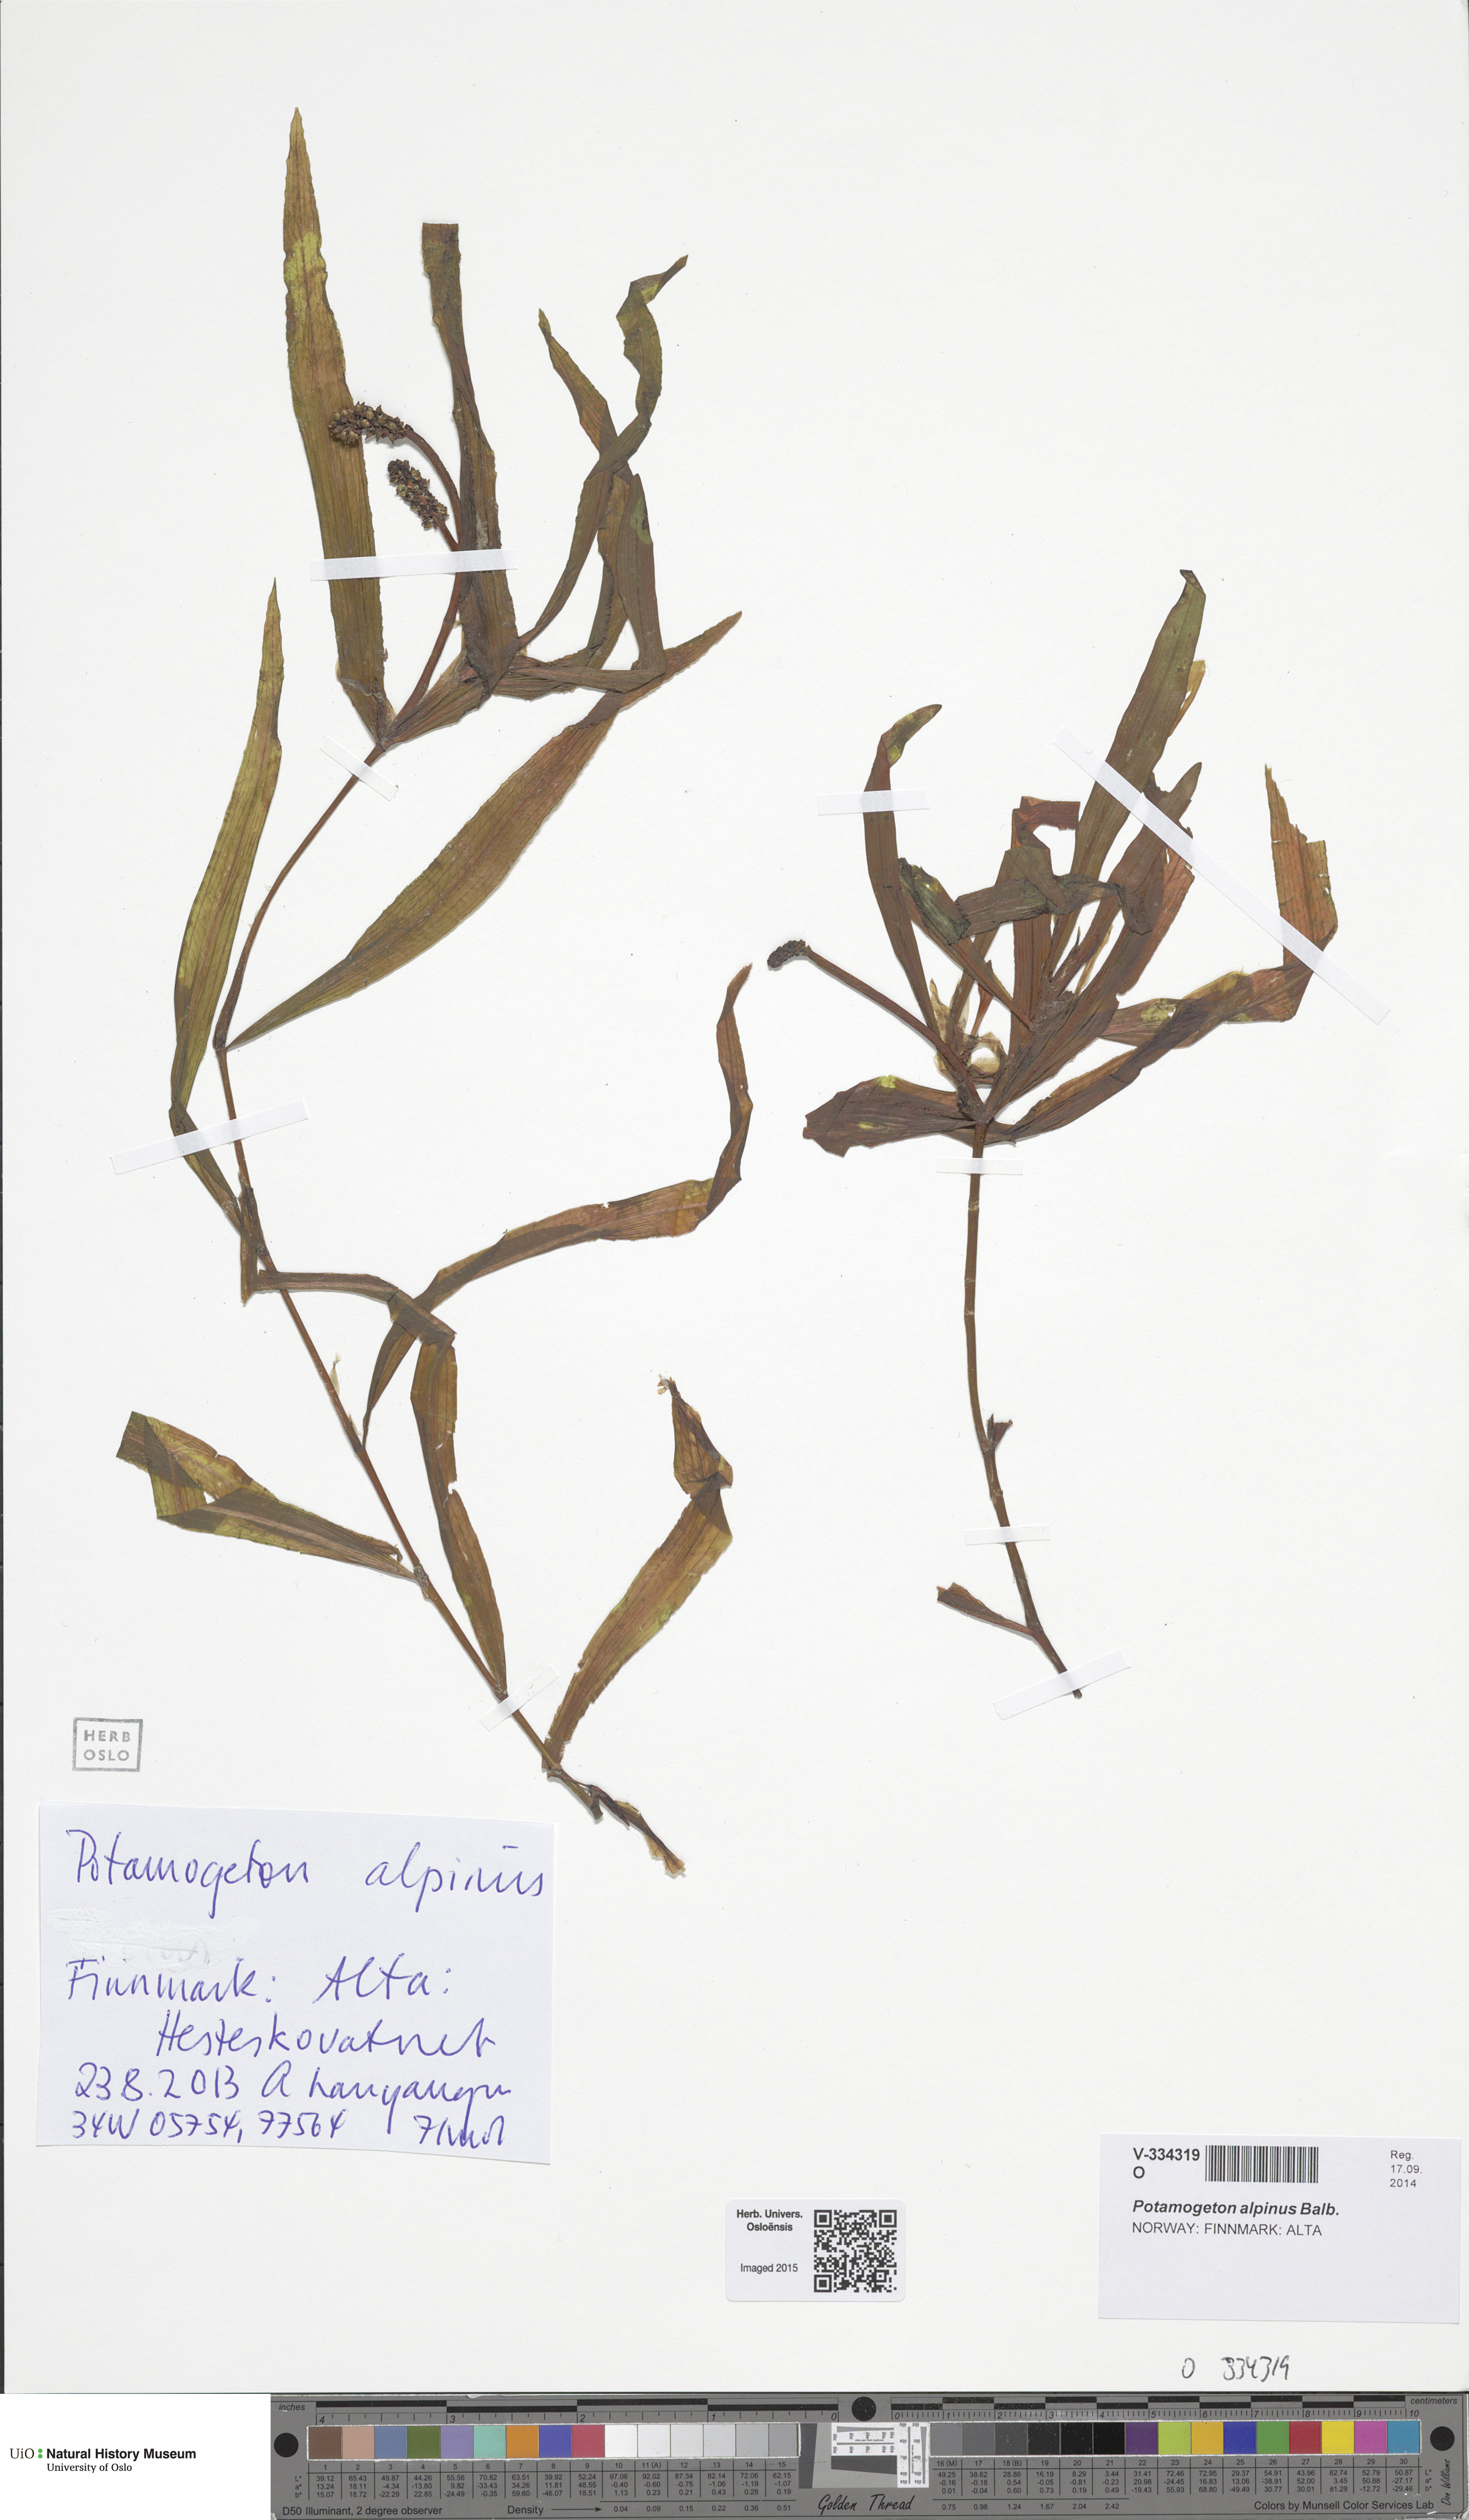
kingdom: Plantae
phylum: Tracheophyta
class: Liliopsida
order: Alismatales
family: Potamogetonaceae
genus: Potamogeton
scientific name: Potamogeton alpinus
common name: Red pondweed
